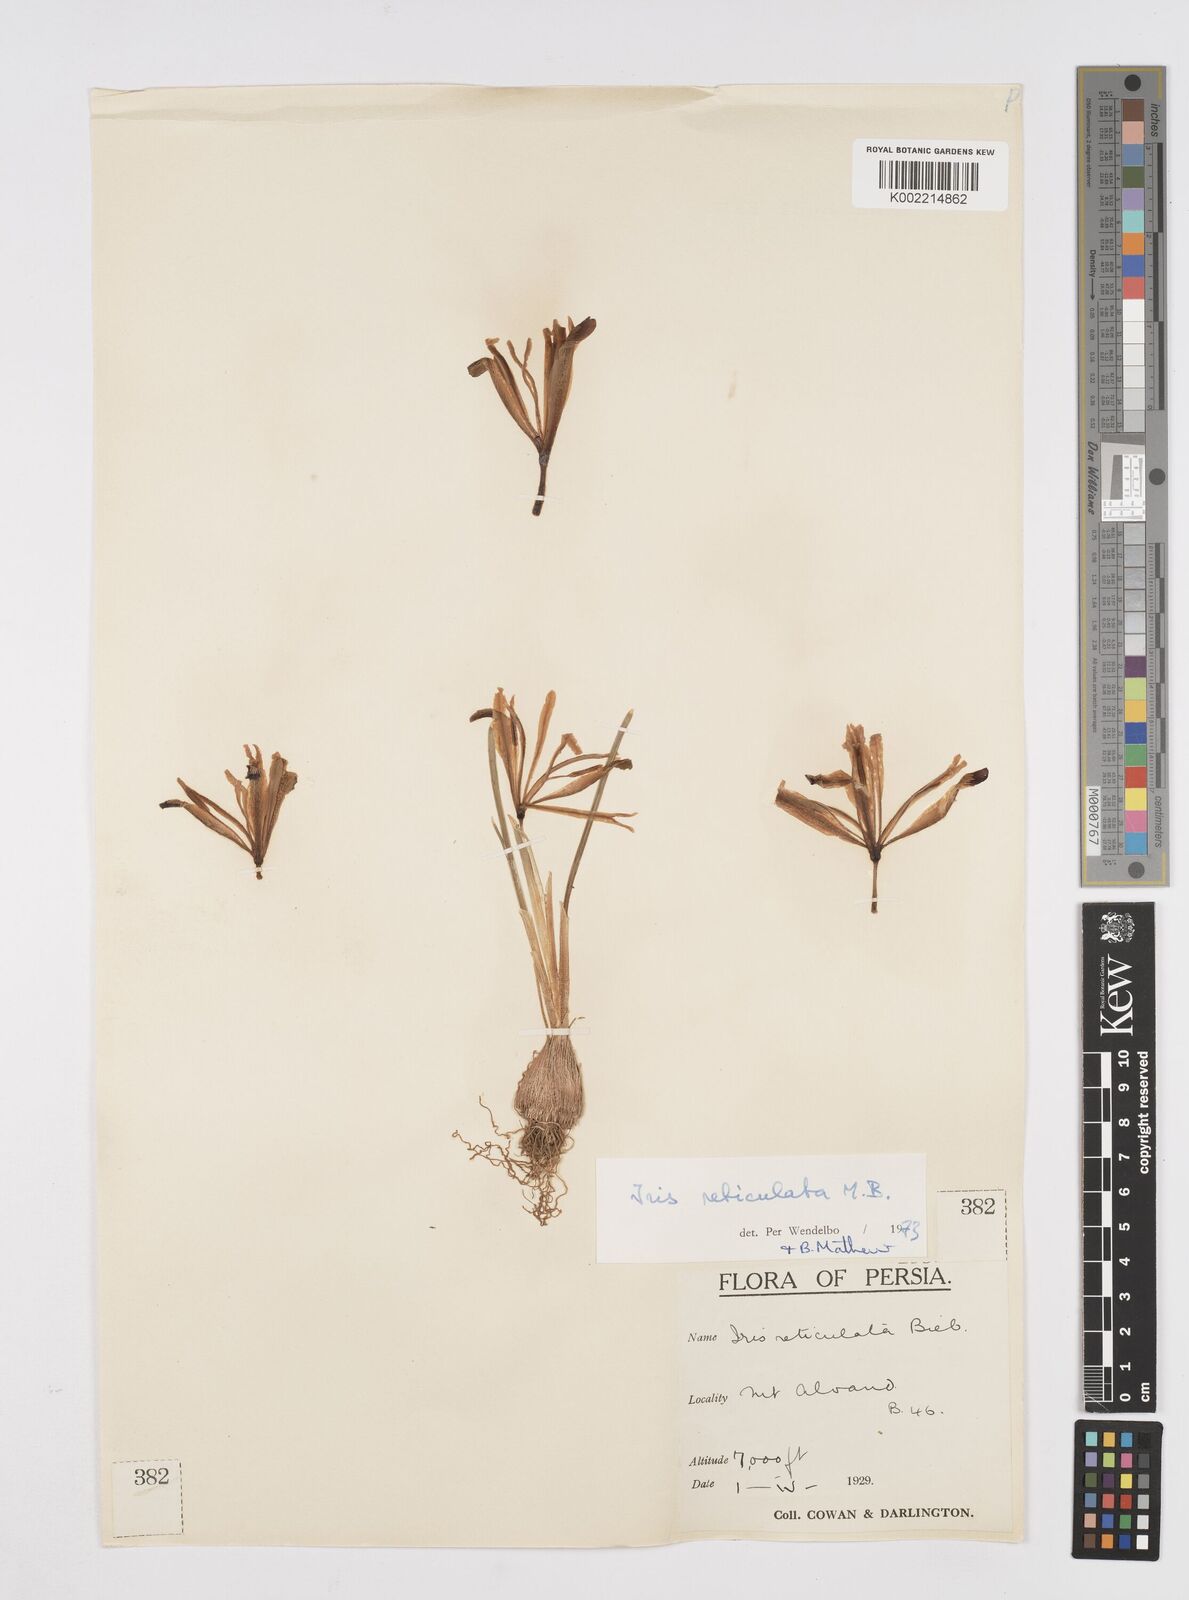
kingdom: Plantae
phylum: Tracheophyta
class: Liliopsida
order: Asparagales
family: Iridaceae
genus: Iris
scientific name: Iris reticulata
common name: Netted iris
